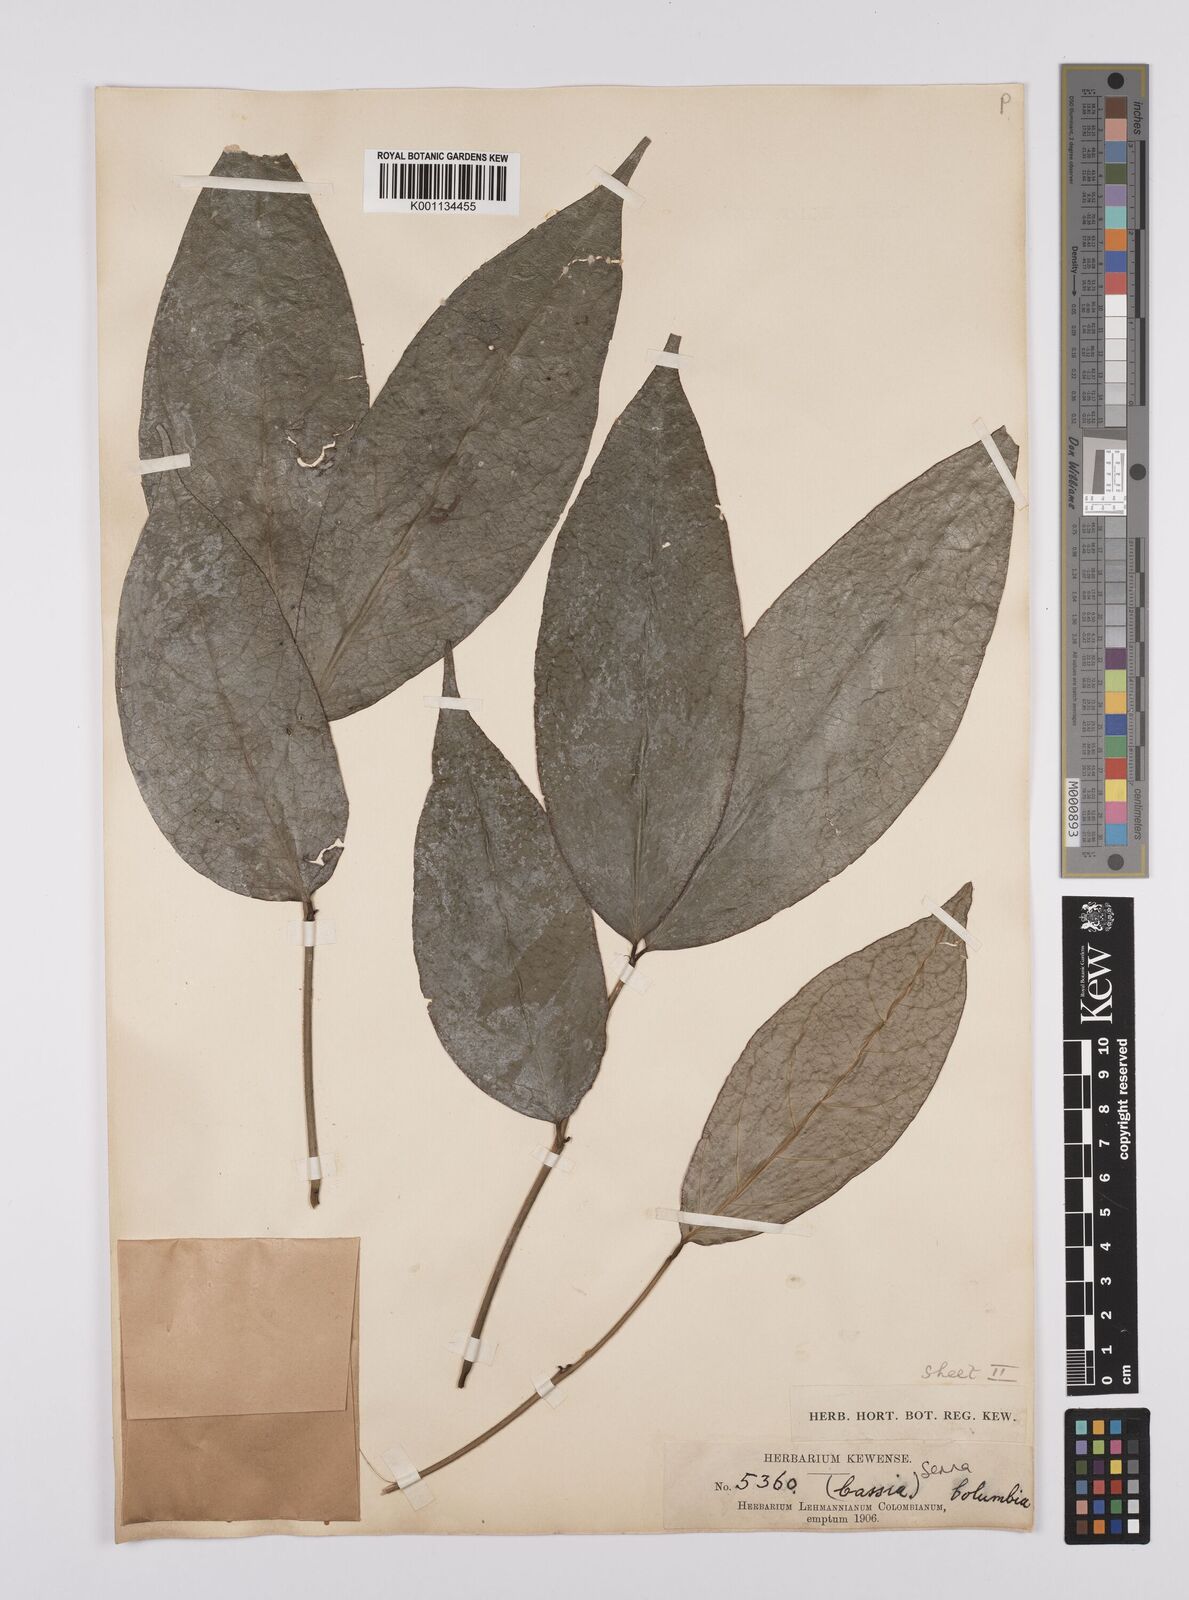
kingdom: Plantae
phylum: Tracheophyta
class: Magnoliopsida
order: Fabales
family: Fabaceae
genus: Senna
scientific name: Senna
